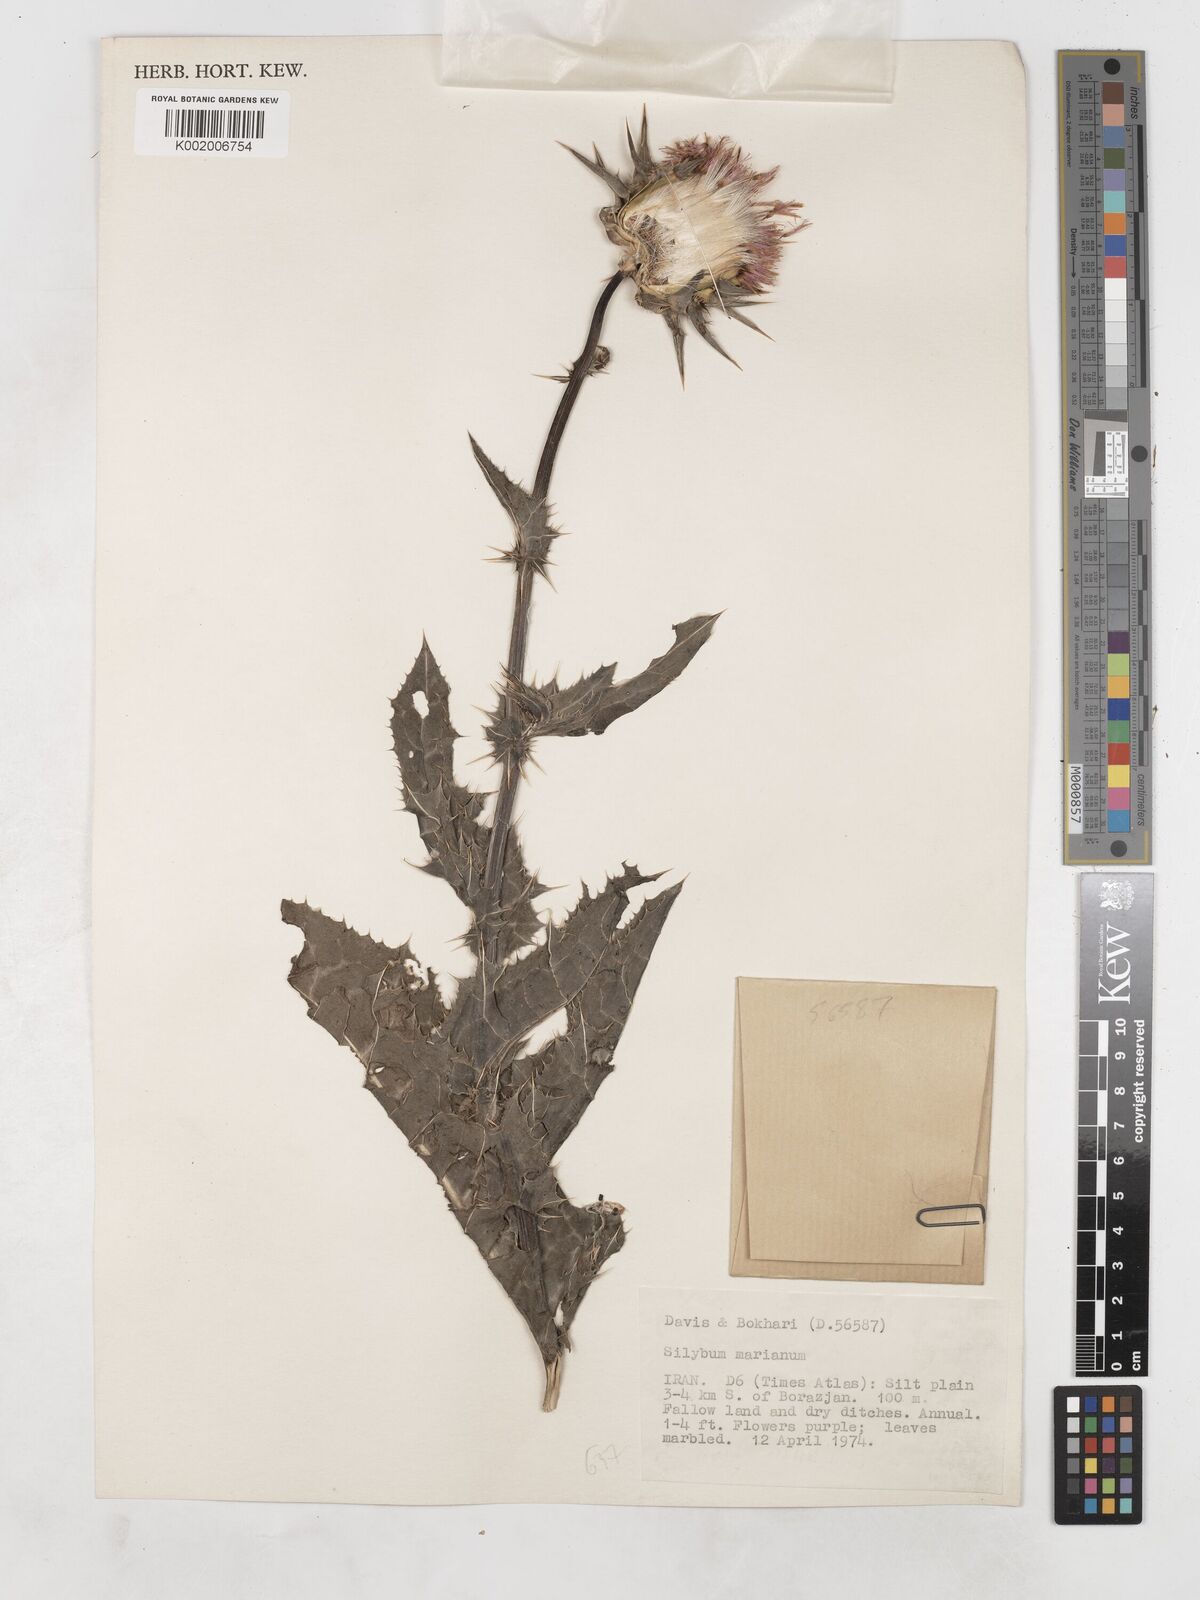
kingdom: Plantae
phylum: Tracheophyta
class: Magnoliopsida
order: Asterales
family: Asteraceae
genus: Silybum
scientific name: Silybum marianum
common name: Milk thistle
